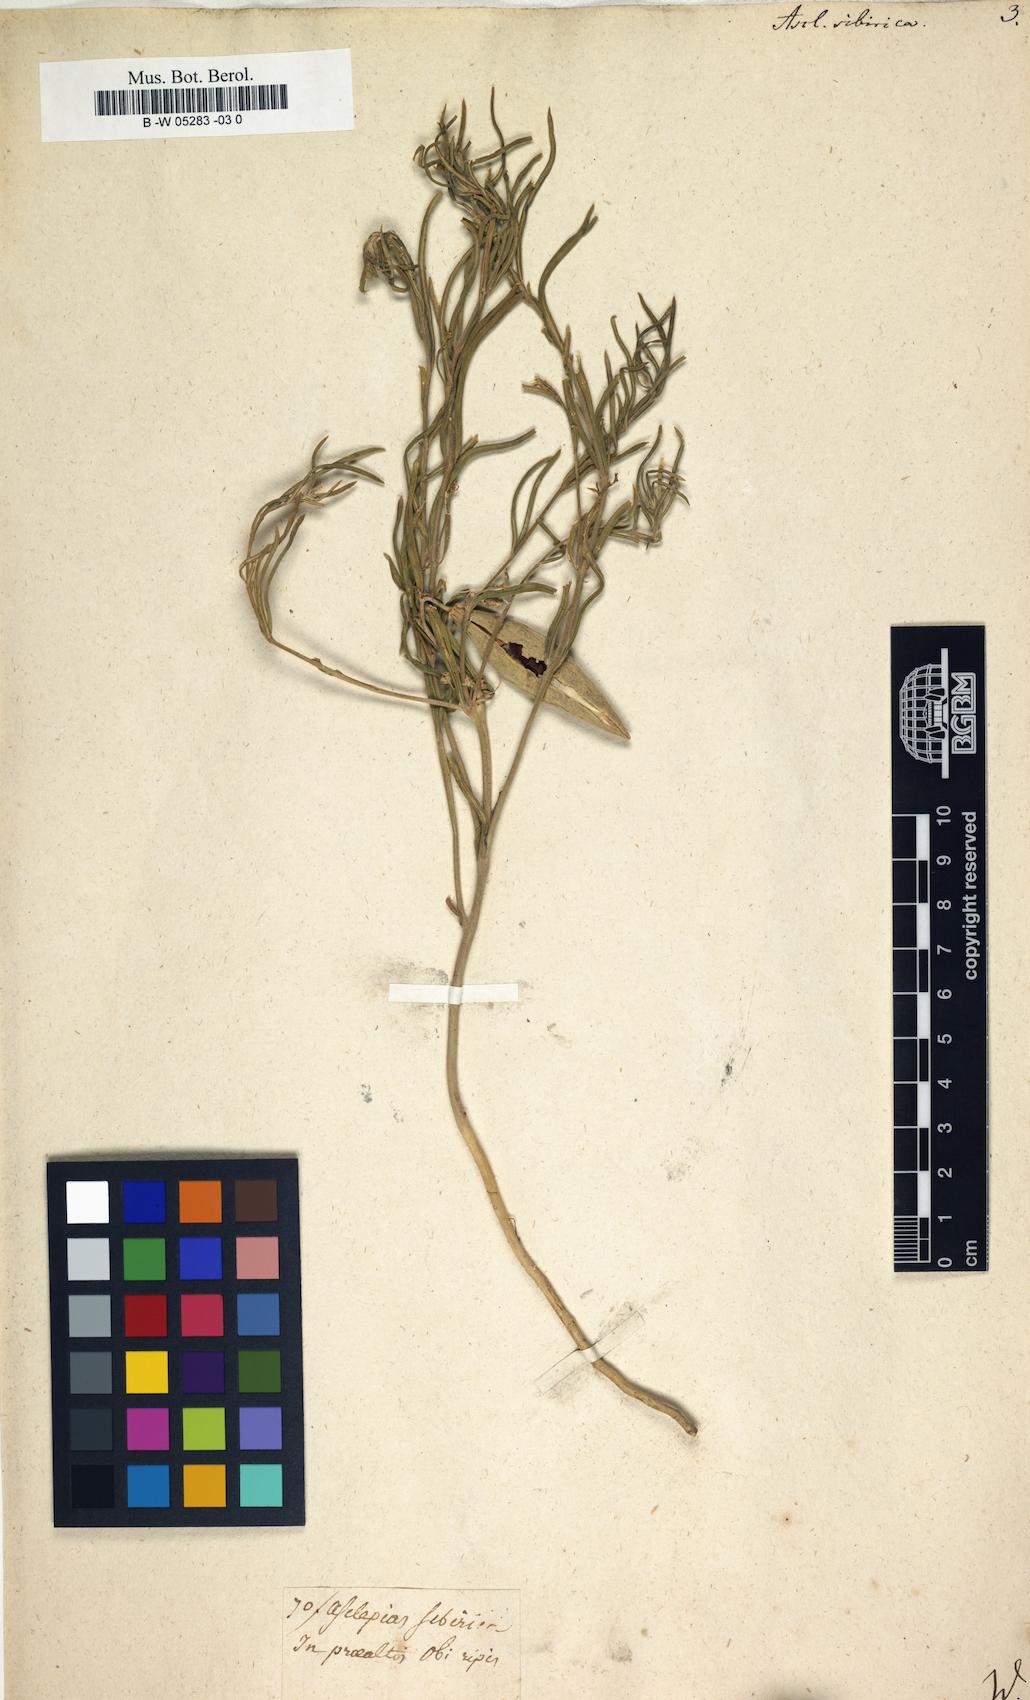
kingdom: Plantae
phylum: Tracheophyta
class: Magnoliopsida
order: Gentianales
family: Apocynaceae
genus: Cynanchum
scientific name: Cynanchum thesioides
